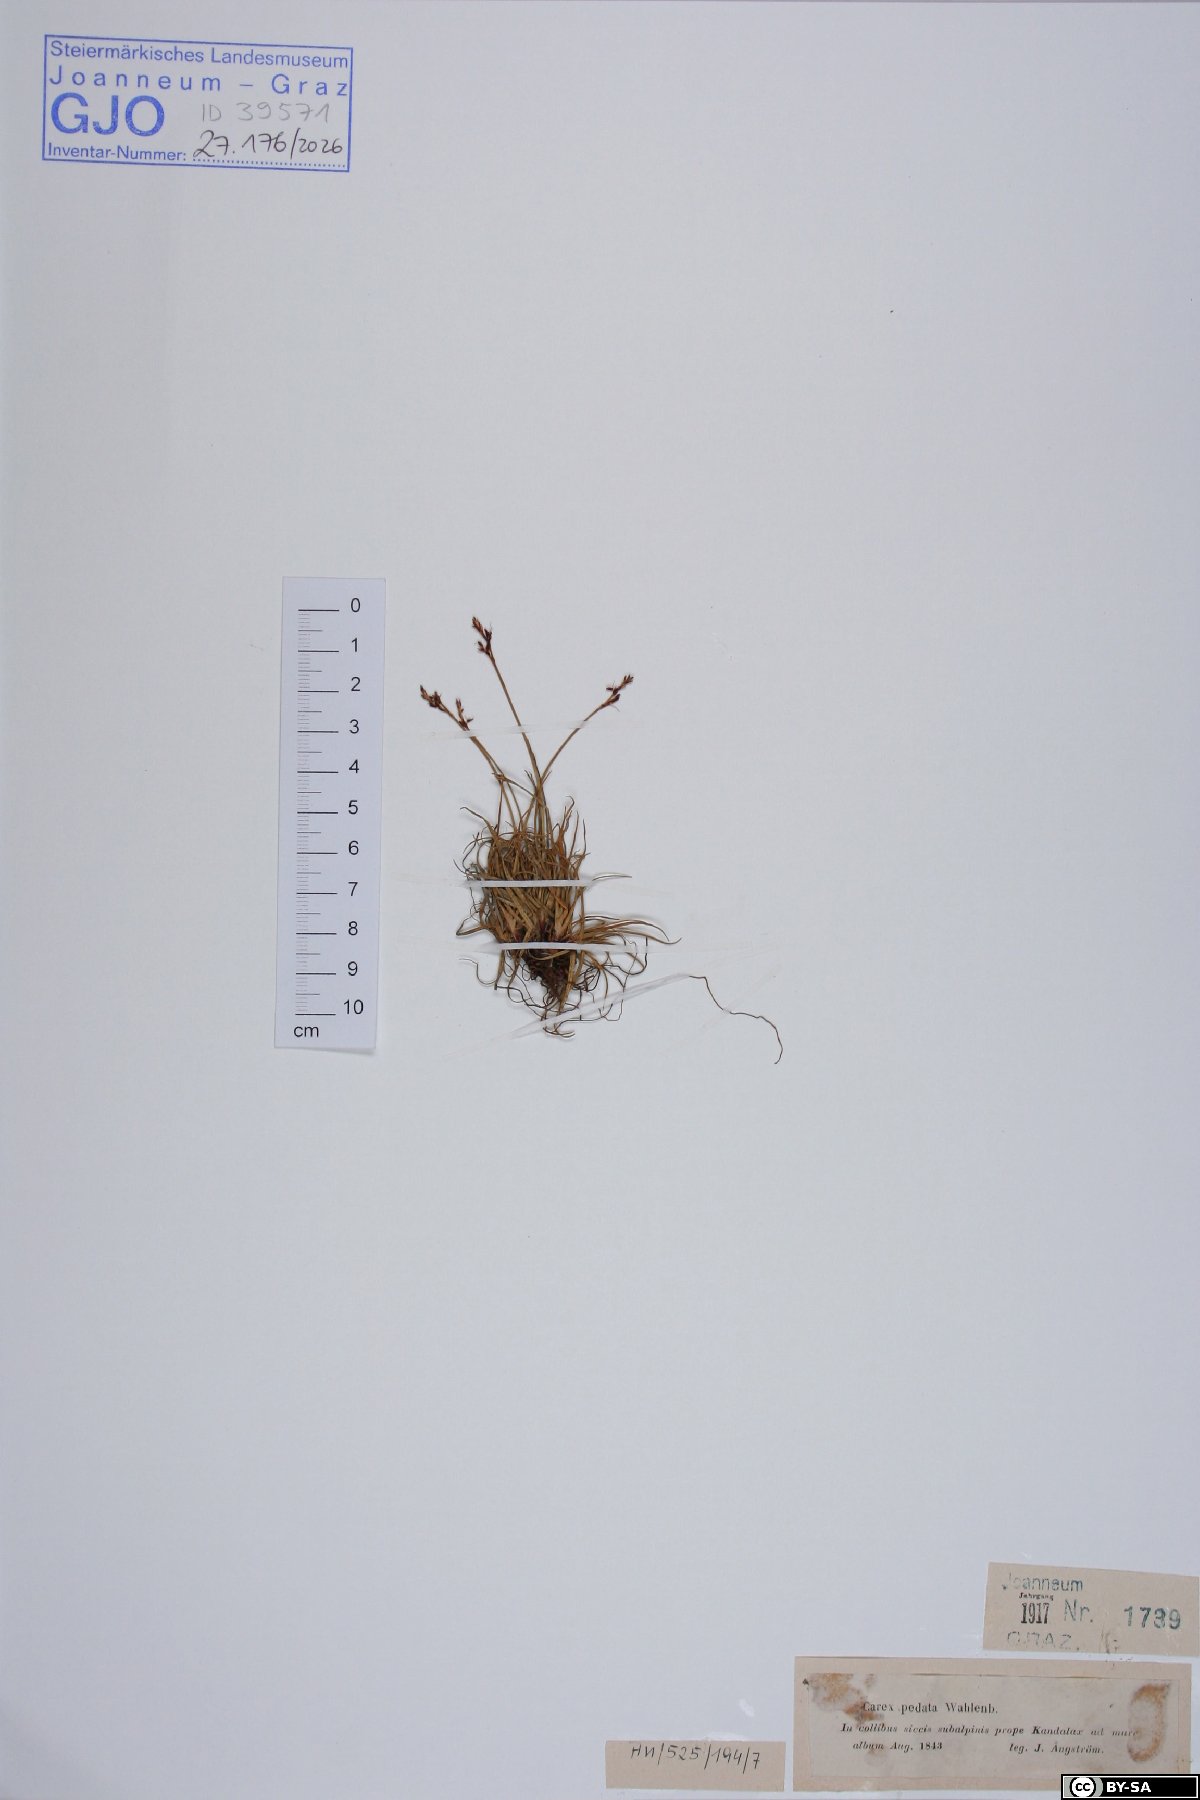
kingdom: Plantae
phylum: Tracheophyta
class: Liliopsida
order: Poales
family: Cyperaceae
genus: Carex
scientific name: Carex ornithopoda
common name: Bird's-foot sedge
